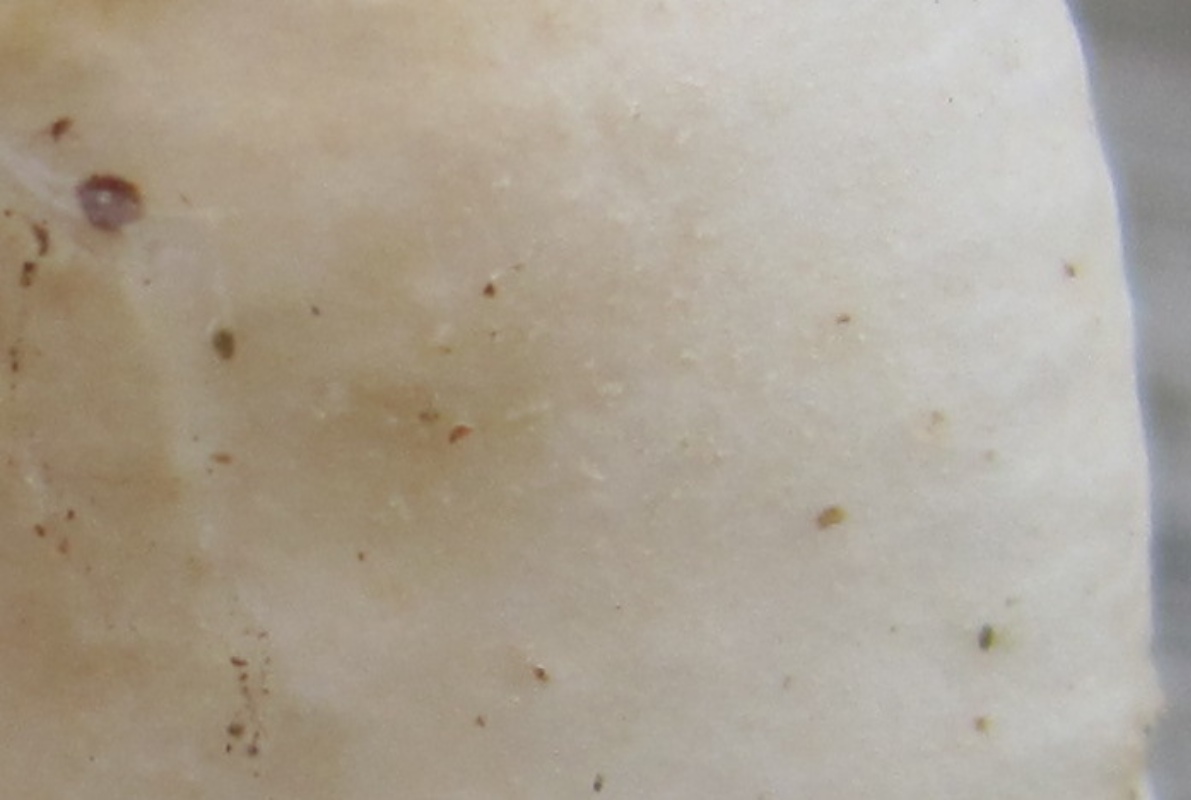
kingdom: Fungi
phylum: Basidiomycota
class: Agaricomycetes
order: Russulales
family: Russulaceae
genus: Russula
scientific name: Russula roseoaurantia
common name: kornet skørhat
